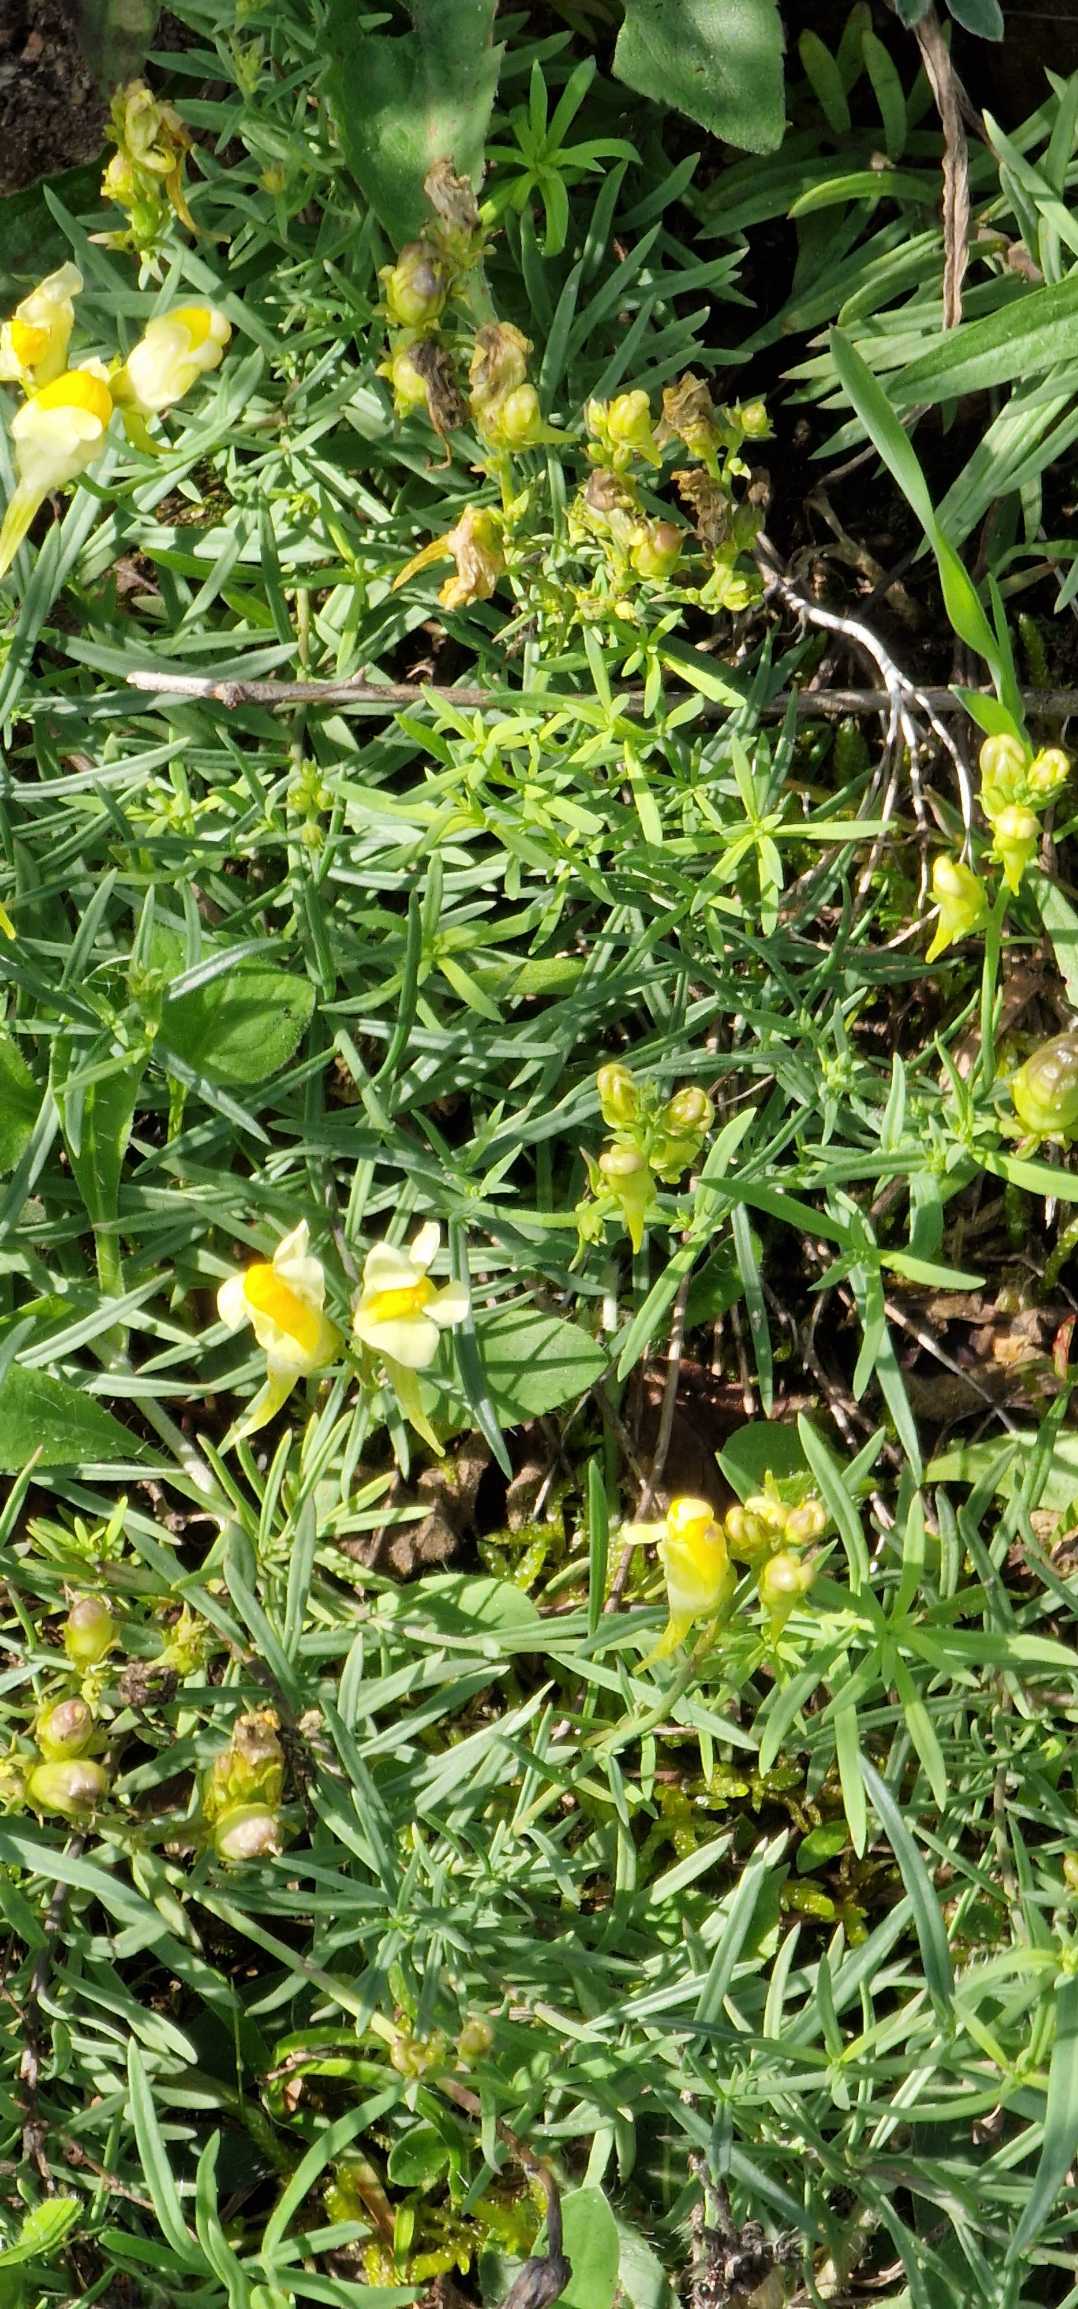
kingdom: Plantae
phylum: Tracheophyta
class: Magnoliopsida
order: Lamiales
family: Plantaginaceae
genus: Linaria
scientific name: Linaria vulgaris
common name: Almindelig torskemund
